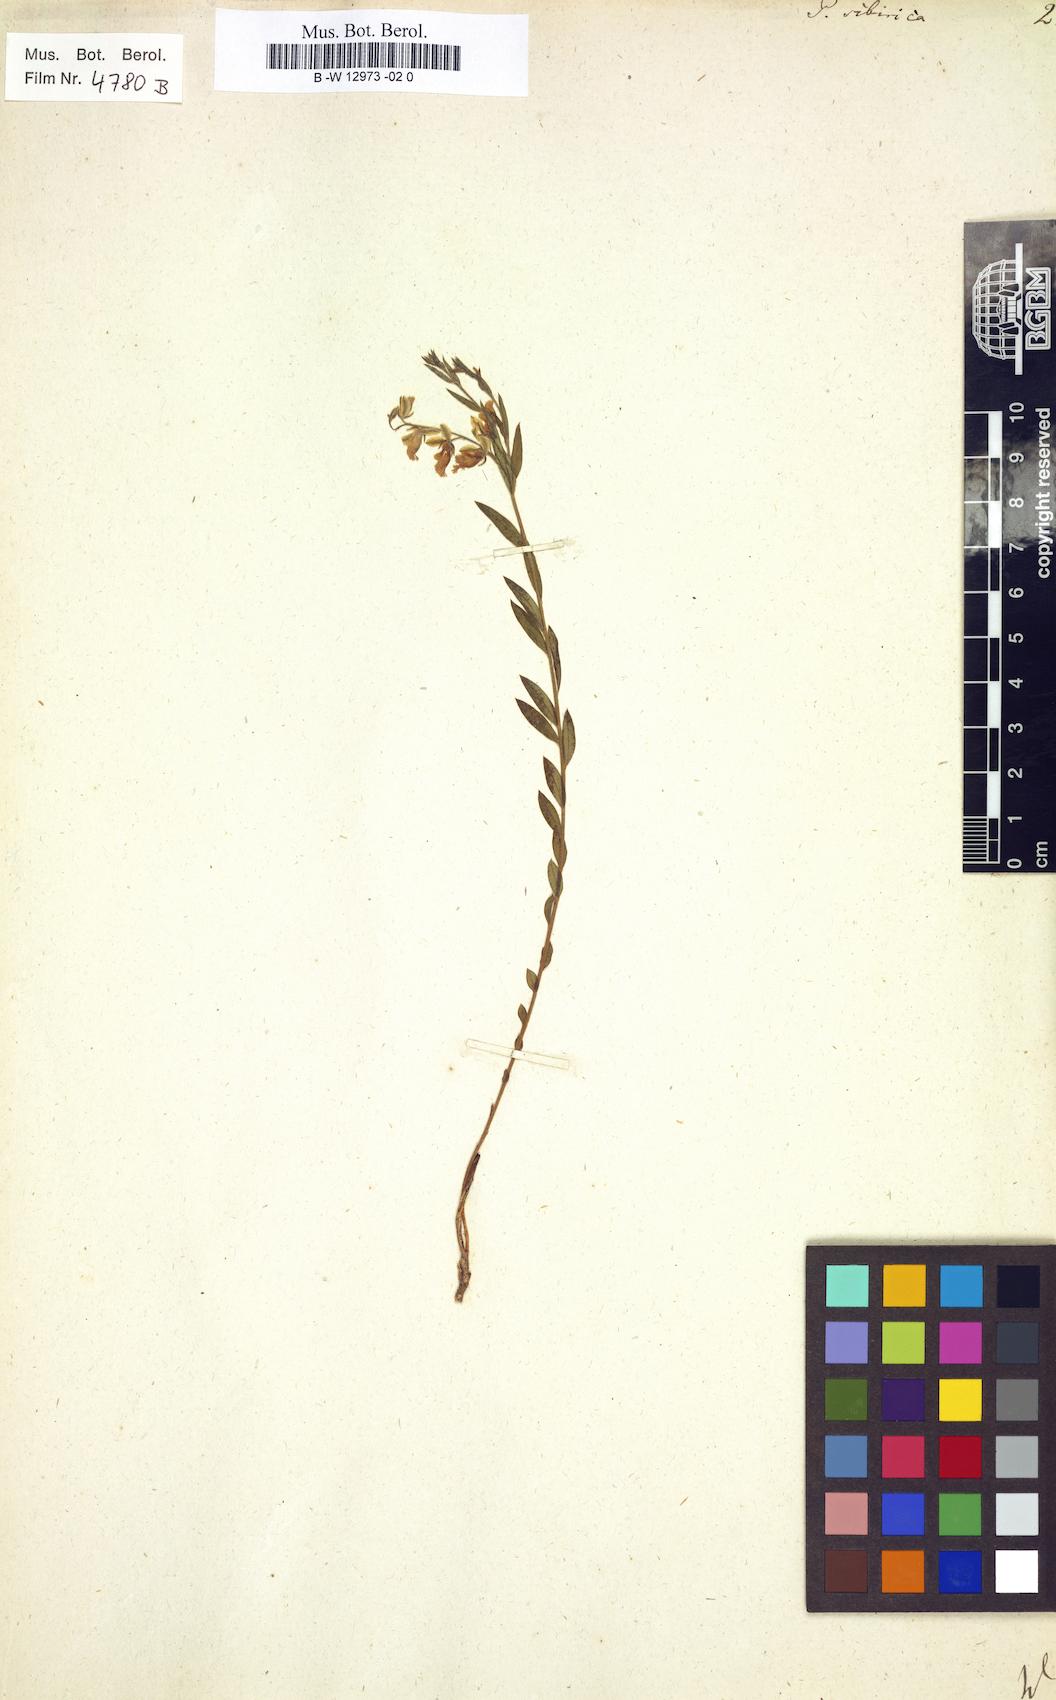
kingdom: Plantae
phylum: Tracheophyta
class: Magnoliopsida
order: Fabales
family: Polygalaceae
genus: Polygala
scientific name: Polygala sibirica
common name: Siberian polygala
